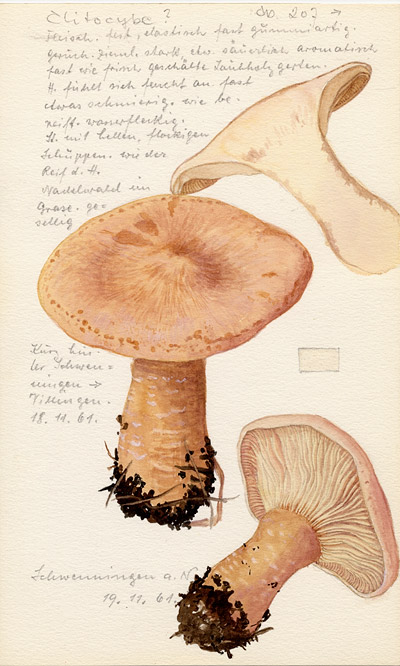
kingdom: Fungi
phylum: Basidiomycota
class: Agaricomycetes
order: Agaricales
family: Tricholomataceae
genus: Clitocybe
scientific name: Clitocybe
